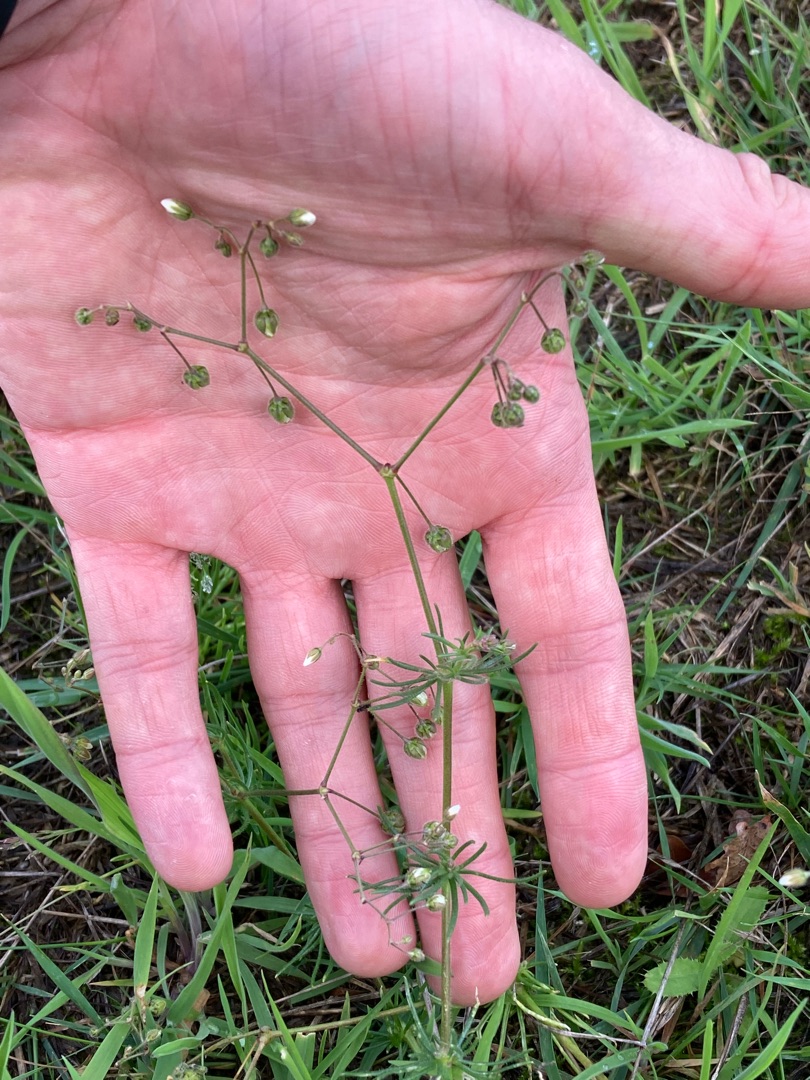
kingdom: Plantae
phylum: Tracheophyta
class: Magnoliopsida
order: Caryophyllales
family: Caryophyllaceae
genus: Spergula
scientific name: Spergula arvensis
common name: Almindelig spergel
